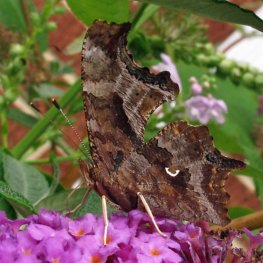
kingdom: Animalia
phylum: Arthropoda
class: Insecta
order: Lepidoptera
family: Nymphalidae
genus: Polygonia
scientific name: Polygonia comma
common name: Eastern Comma
